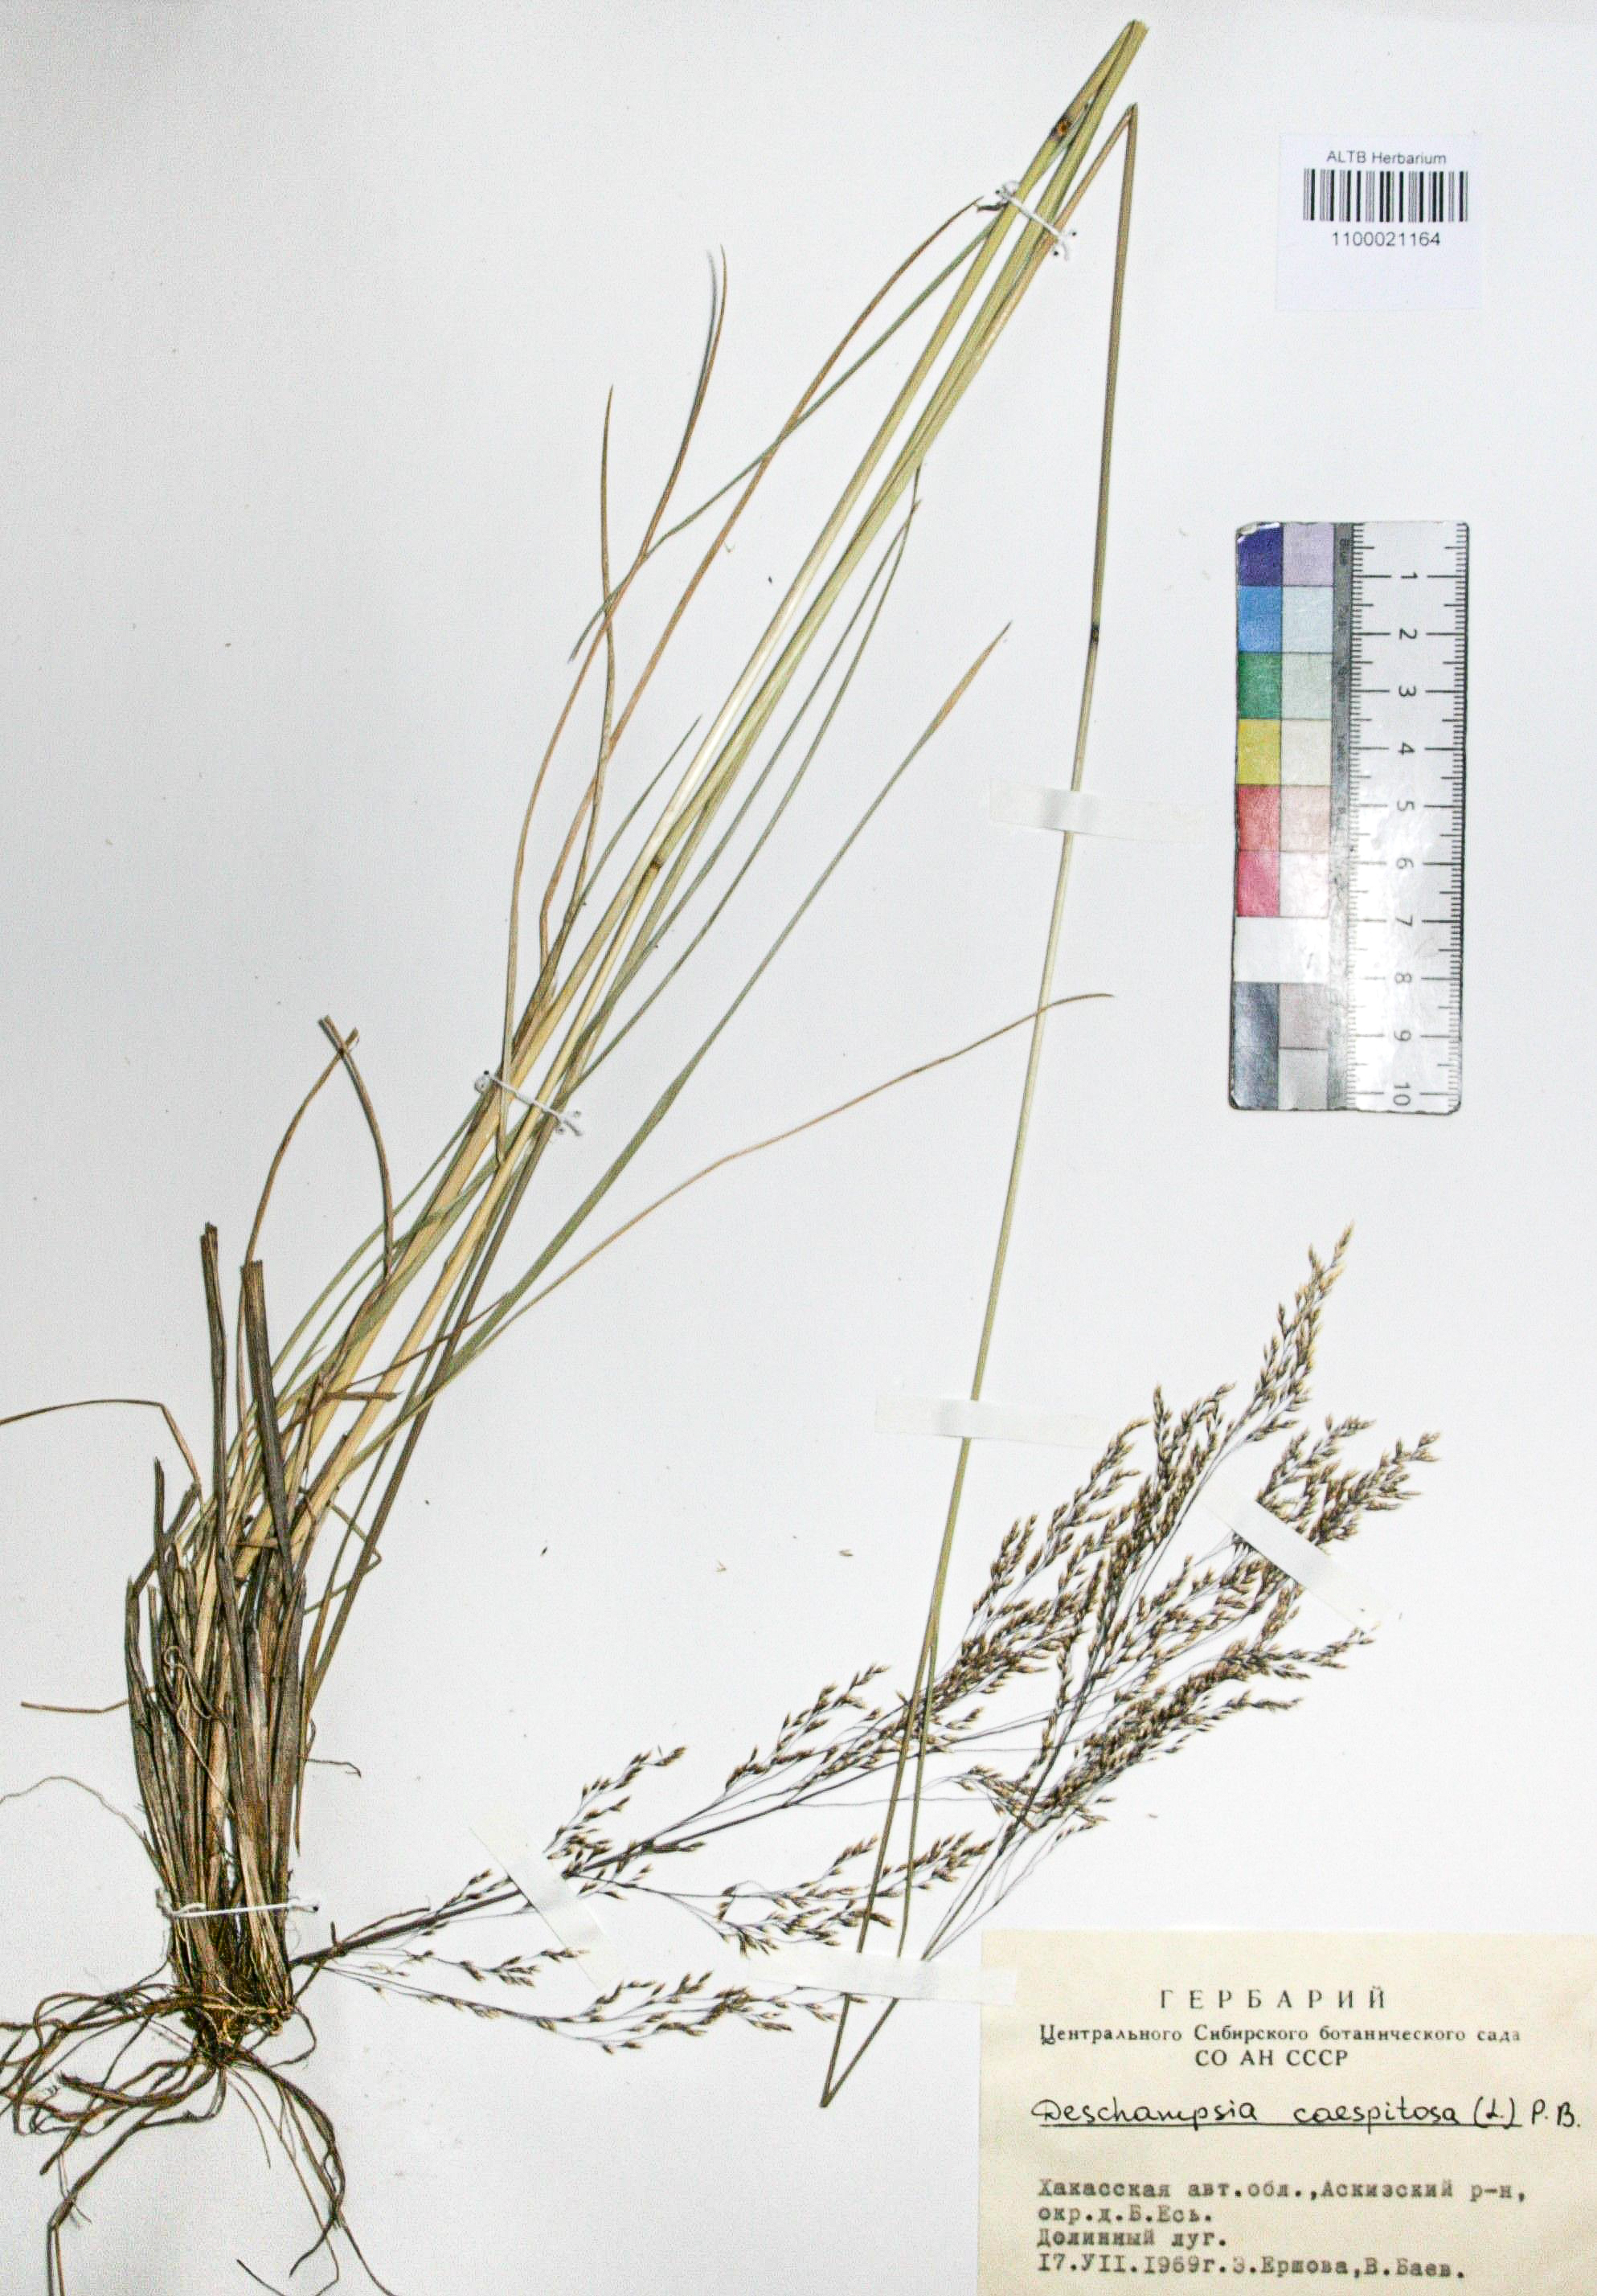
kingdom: Plantae
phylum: Tracheophyta
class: Liliopsida
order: Poales
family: Poaceae
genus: Deschampsia
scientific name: Deschampsia cespitosa
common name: Tufted hair-grass
